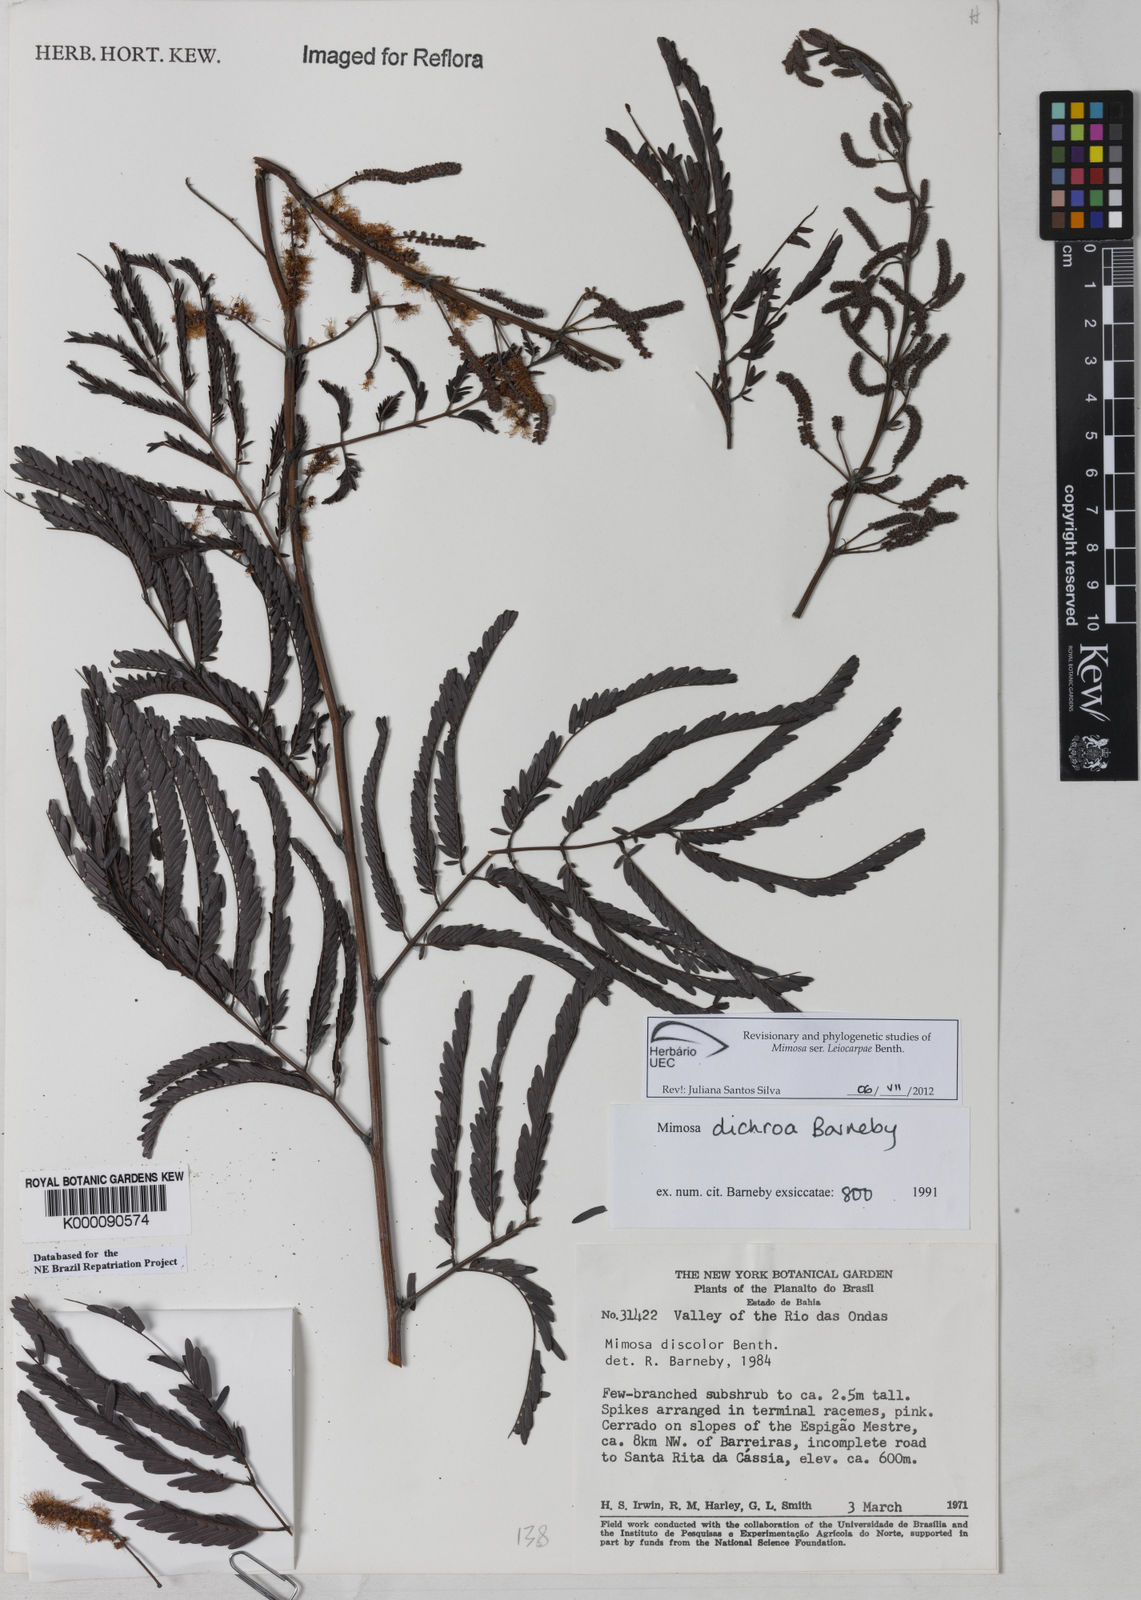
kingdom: Plantae
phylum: Tracheophyta
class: Magnoliopsida
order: Fabales
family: Fabaceae
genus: Mimosa
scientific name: Mimosa dichroa
